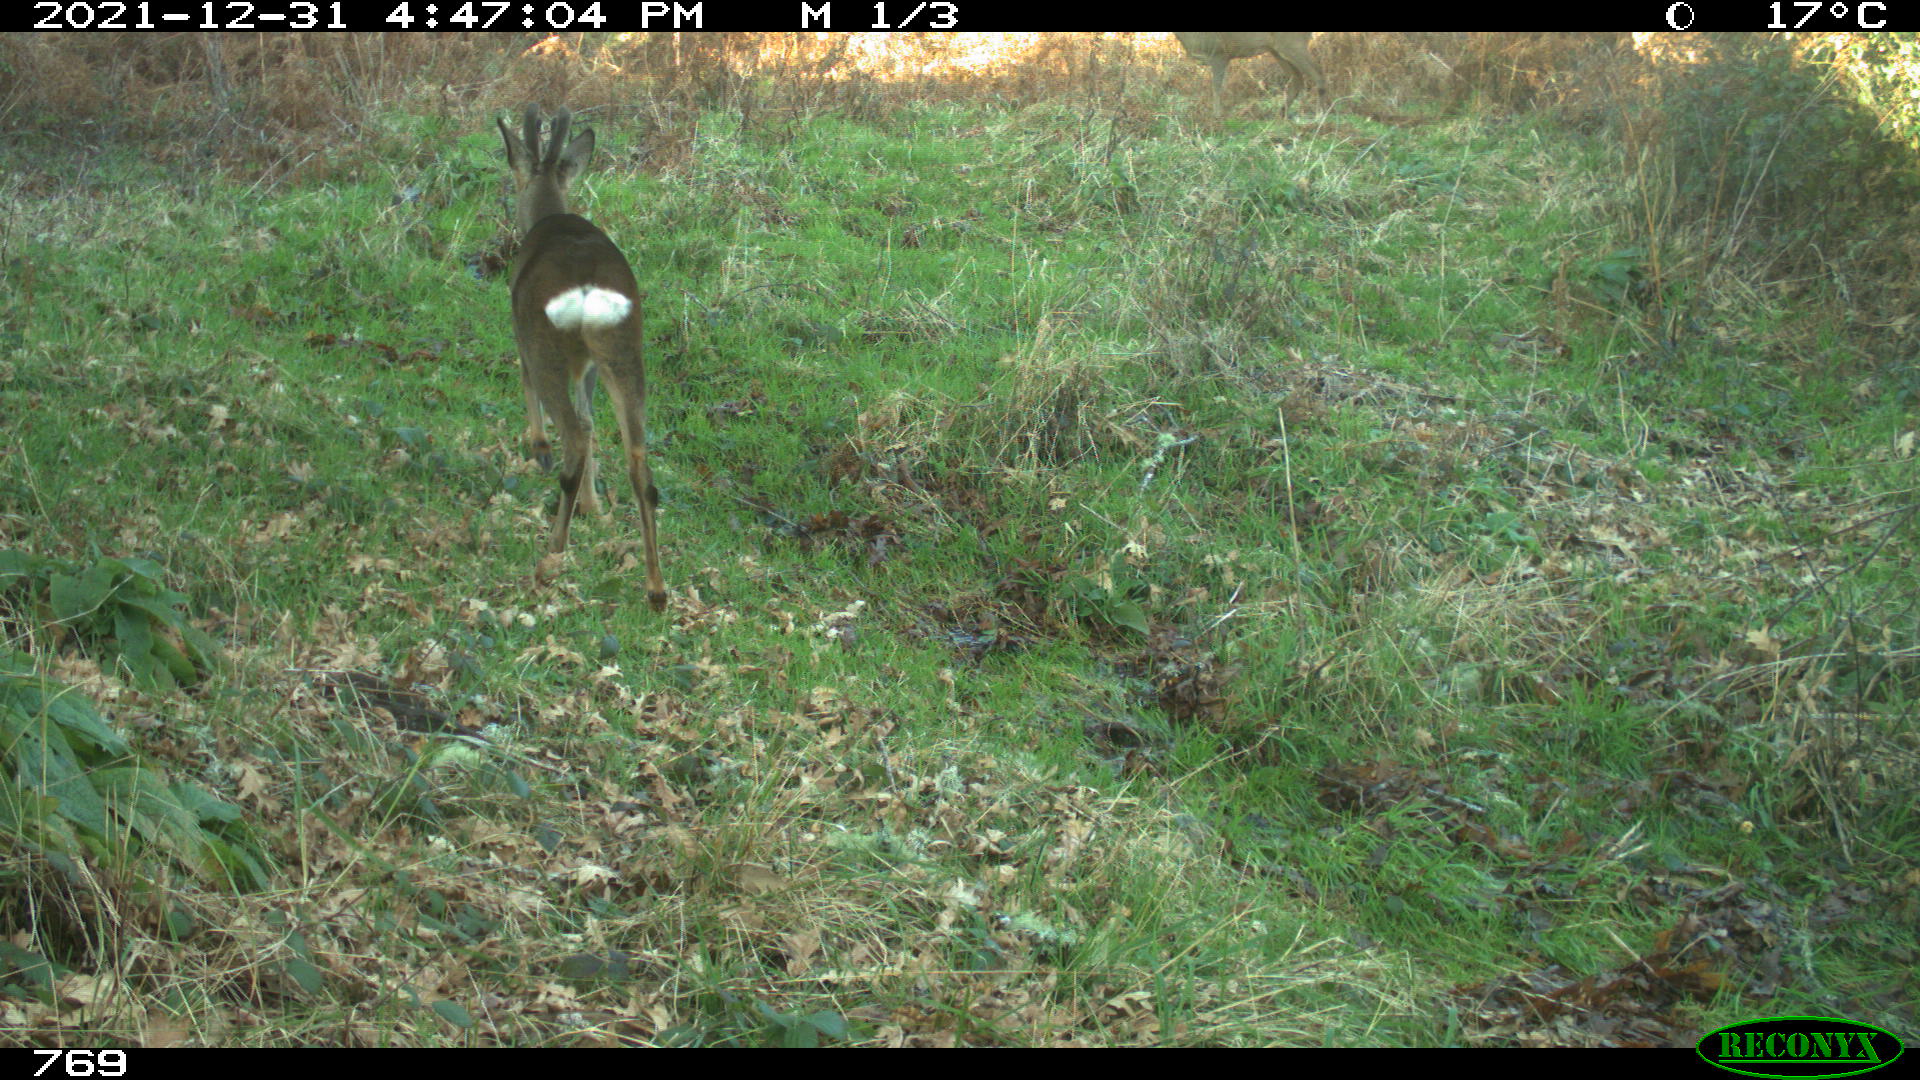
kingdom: Animalia
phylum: Chordata
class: Mammalia
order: Artiodactyla
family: Cervidae
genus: Capreolus
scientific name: Capreolus capreolus
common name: Western roe deer
